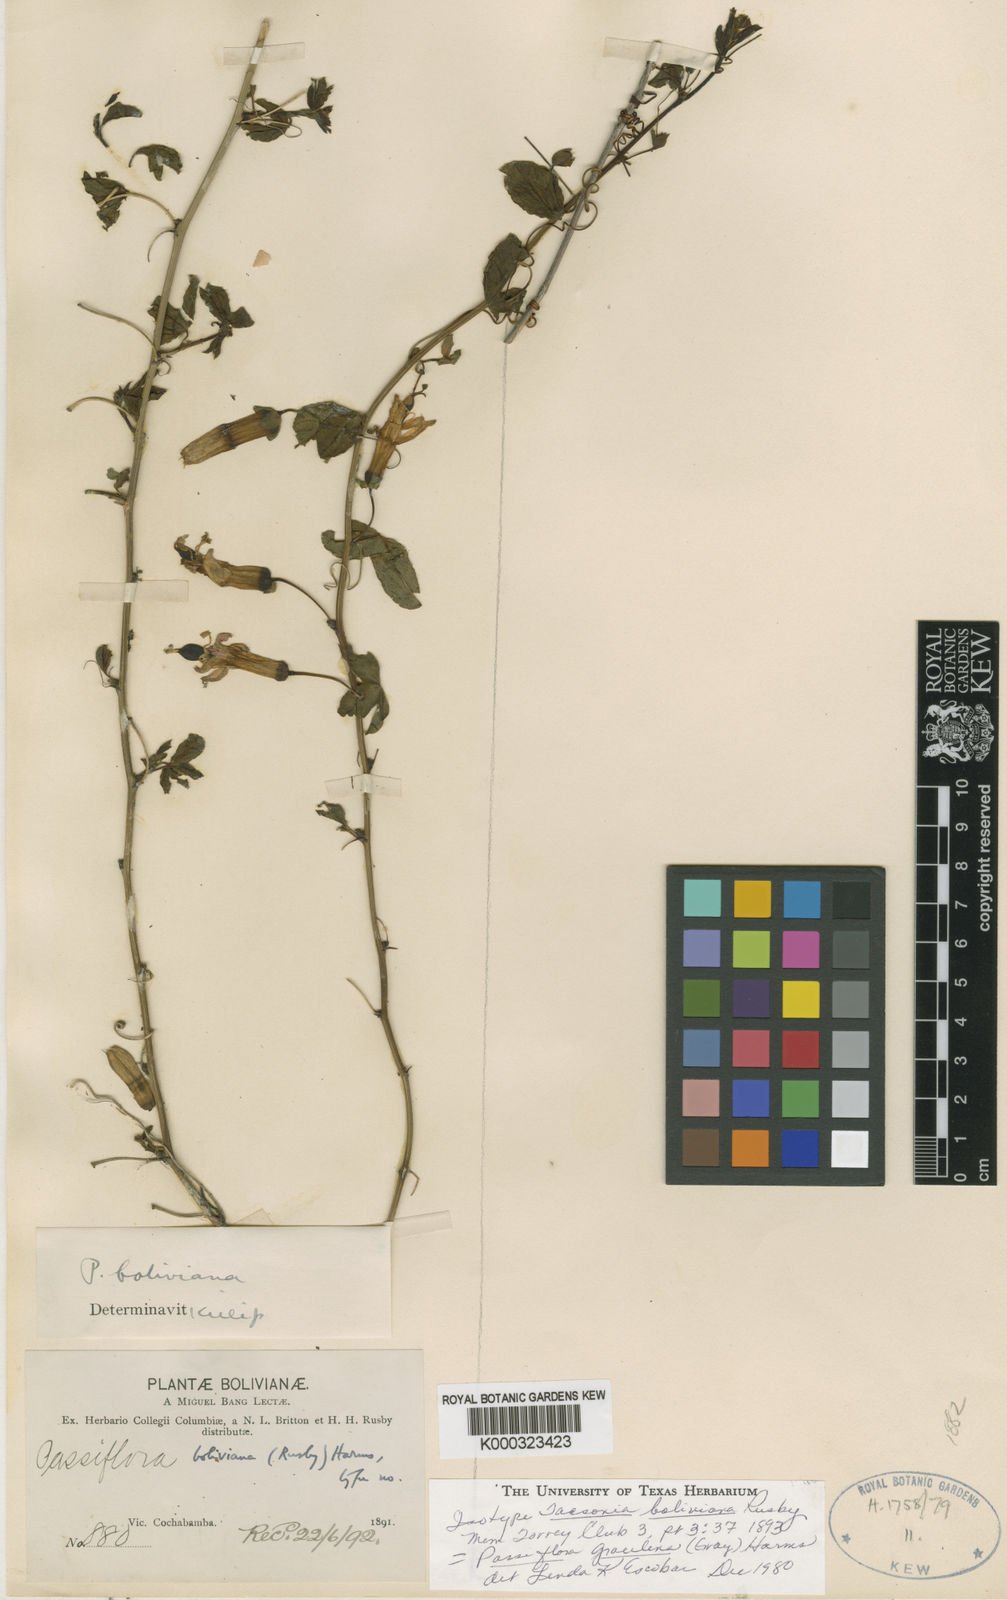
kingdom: Plantae
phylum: Tracheophyta
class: Magnoliopsida
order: Malpighiales
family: Passifloraceae
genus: Passiflora
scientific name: Passiflora gracilens
